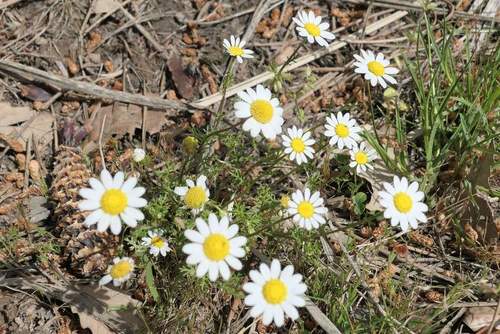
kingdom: Plantae
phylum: Tracheophyta
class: Magnoliopsida
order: Asterales
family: Asteraceae
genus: Chamaemelum
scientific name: Chamaemelum fuscatum
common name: Chamomile
